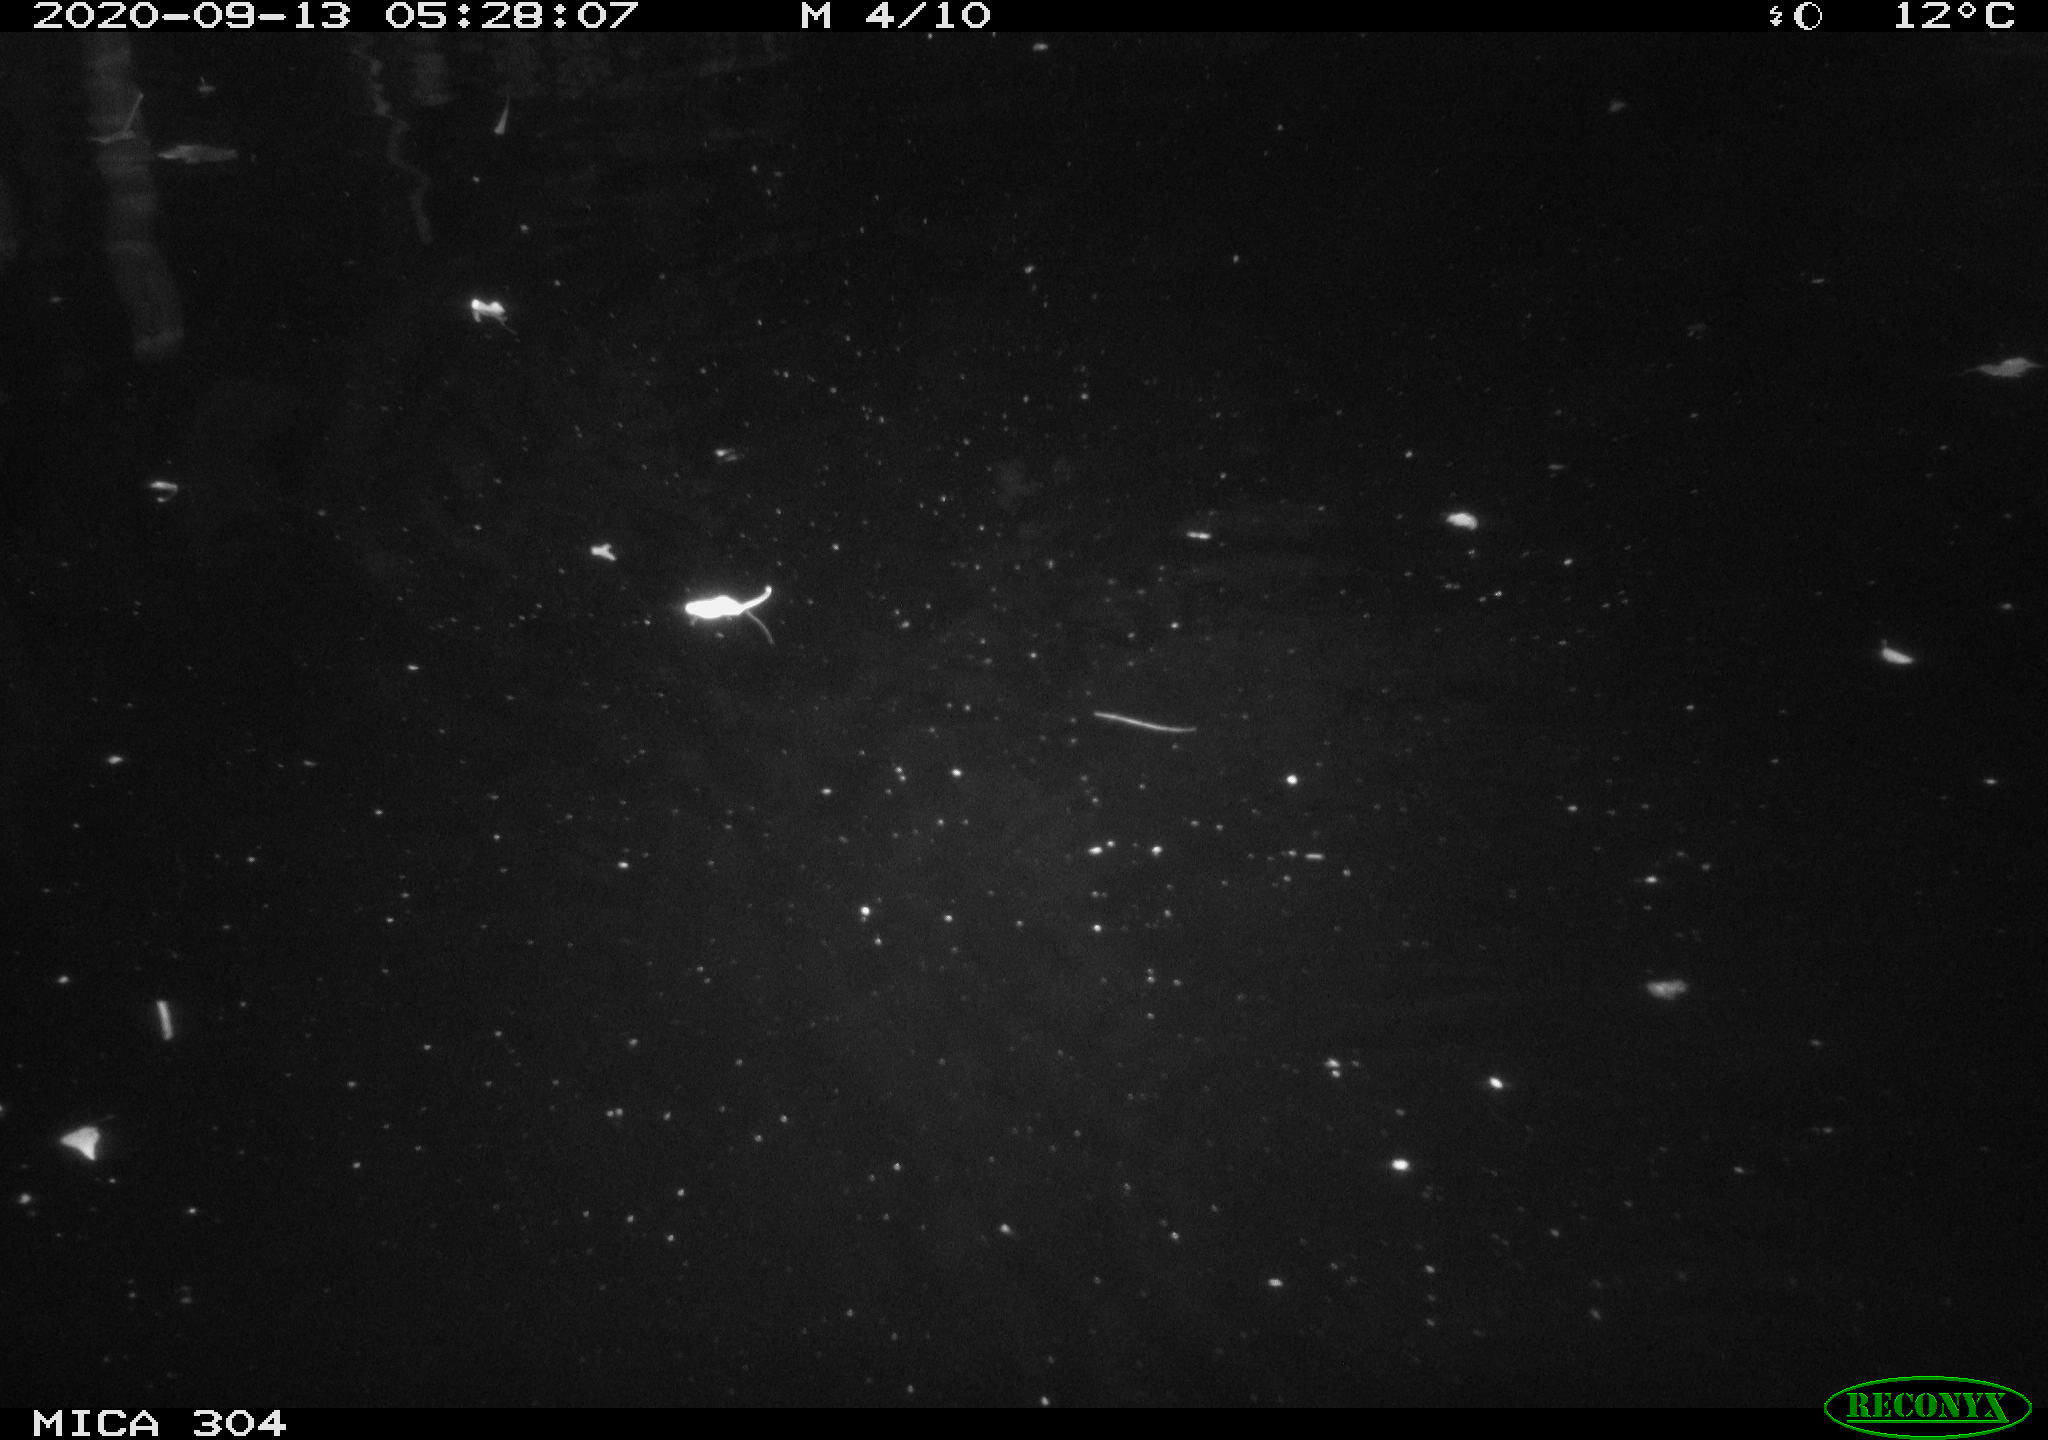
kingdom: Animalia
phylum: Chordata
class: Mammalia
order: Rodentia
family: Cricetidae
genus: Ondatra
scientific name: Ondatra zibethicus
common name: Muskrat
